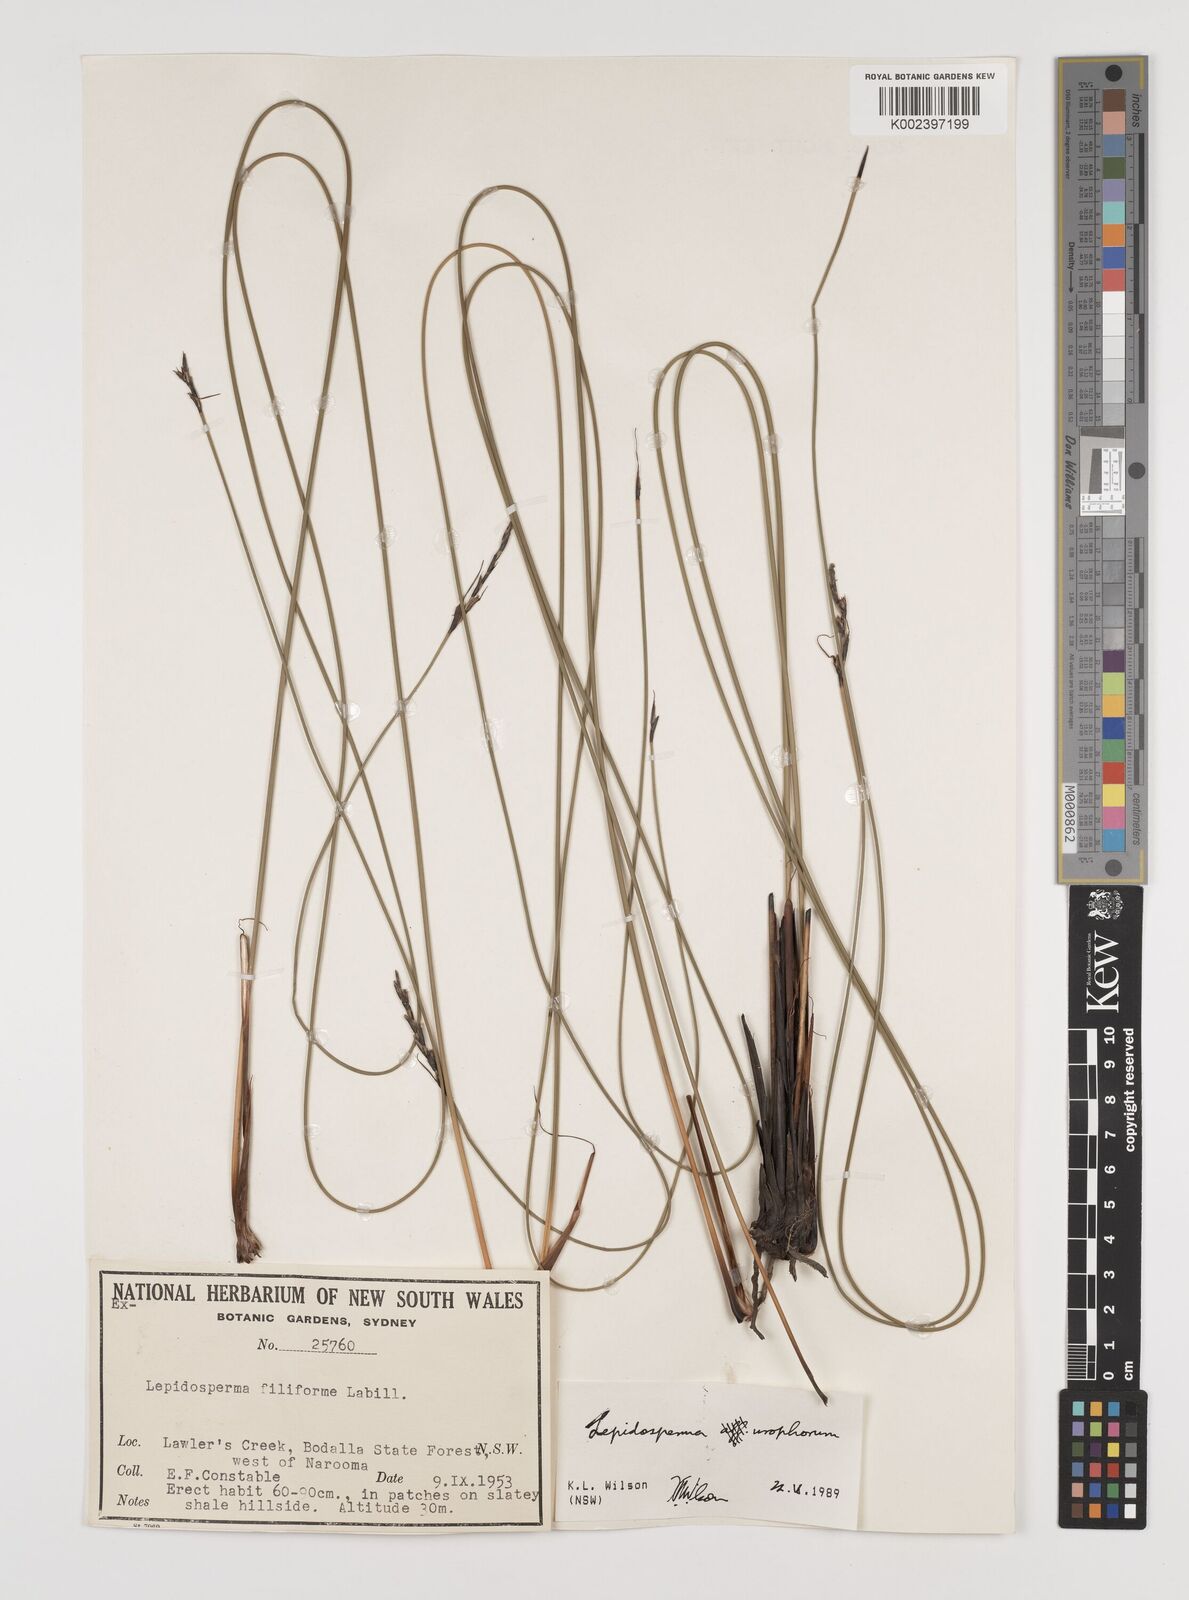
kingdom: Plantae
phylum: Tracheophyta
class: Liliopsida
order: Poales
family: Cyperaceae
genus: Lepidosperma
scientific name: Lepidosperma urophorum
